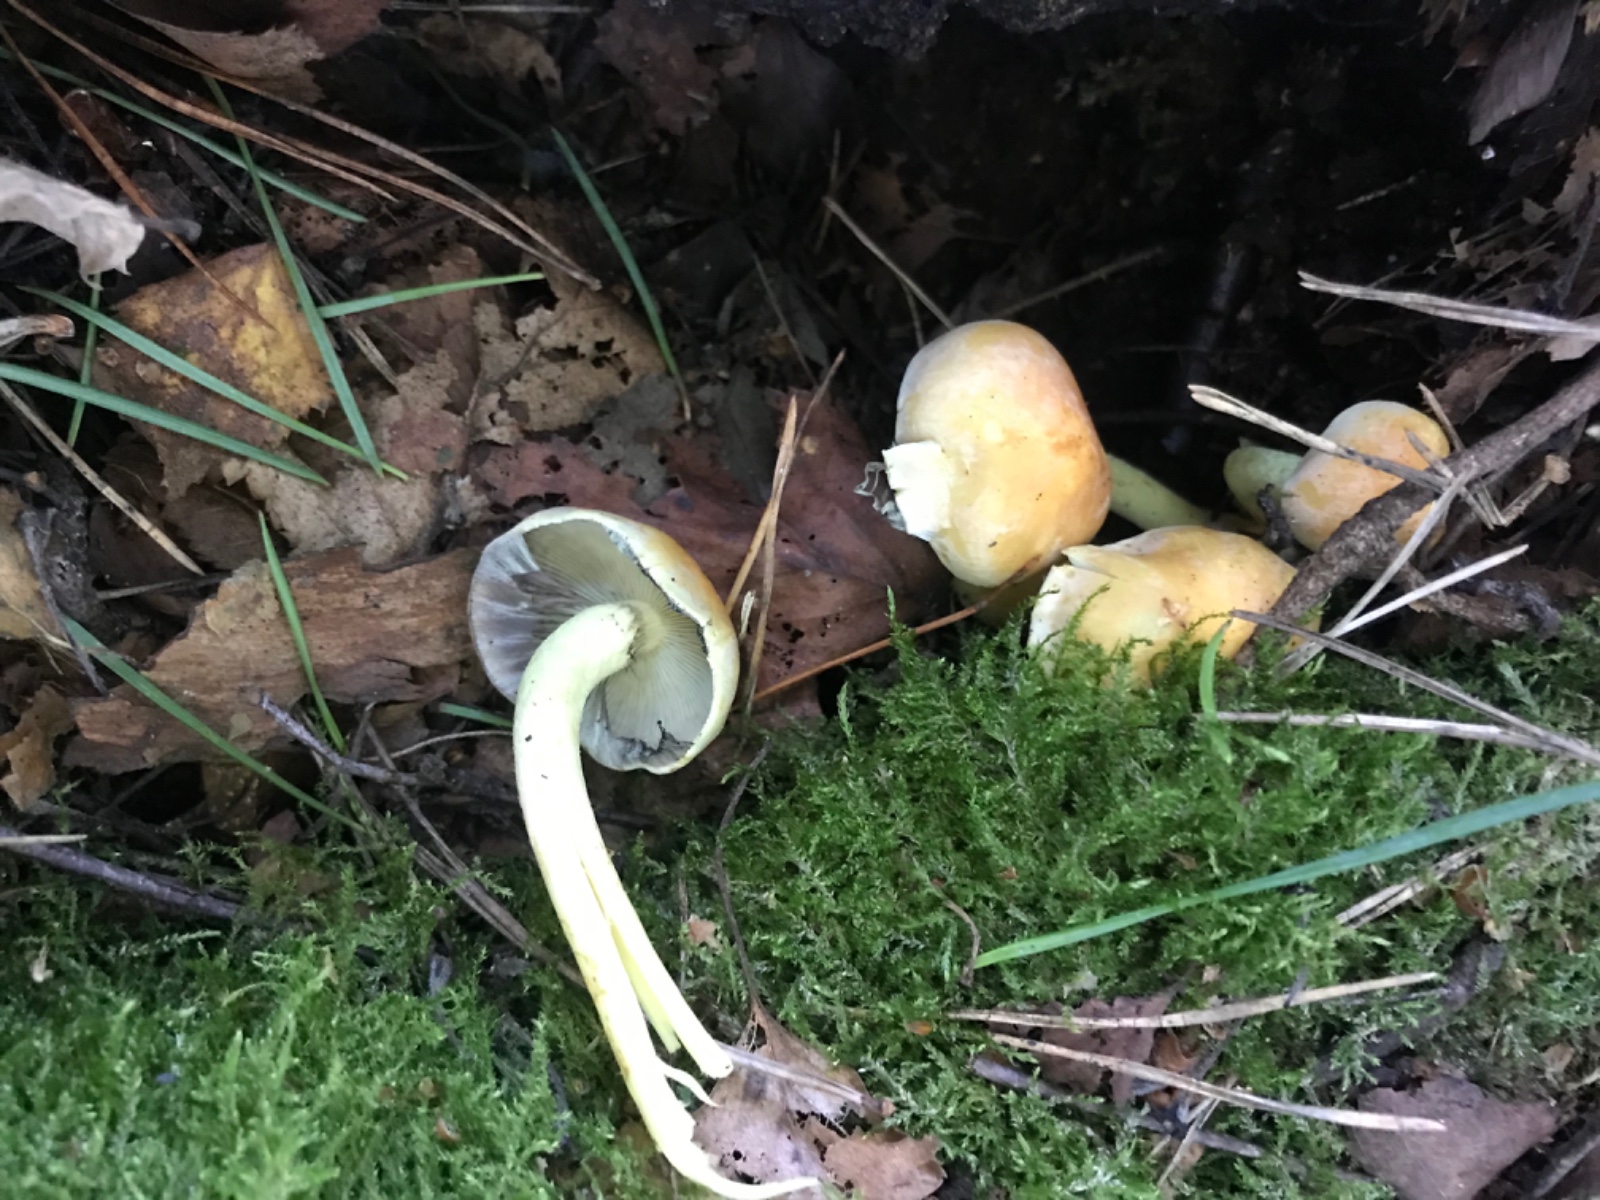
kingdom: Fungi
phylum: Basidiomycota
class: Agaricomycetes
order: Agaricales
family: Strophariaceae
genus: Hypholoma
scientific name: Hypholoma fasciculare
